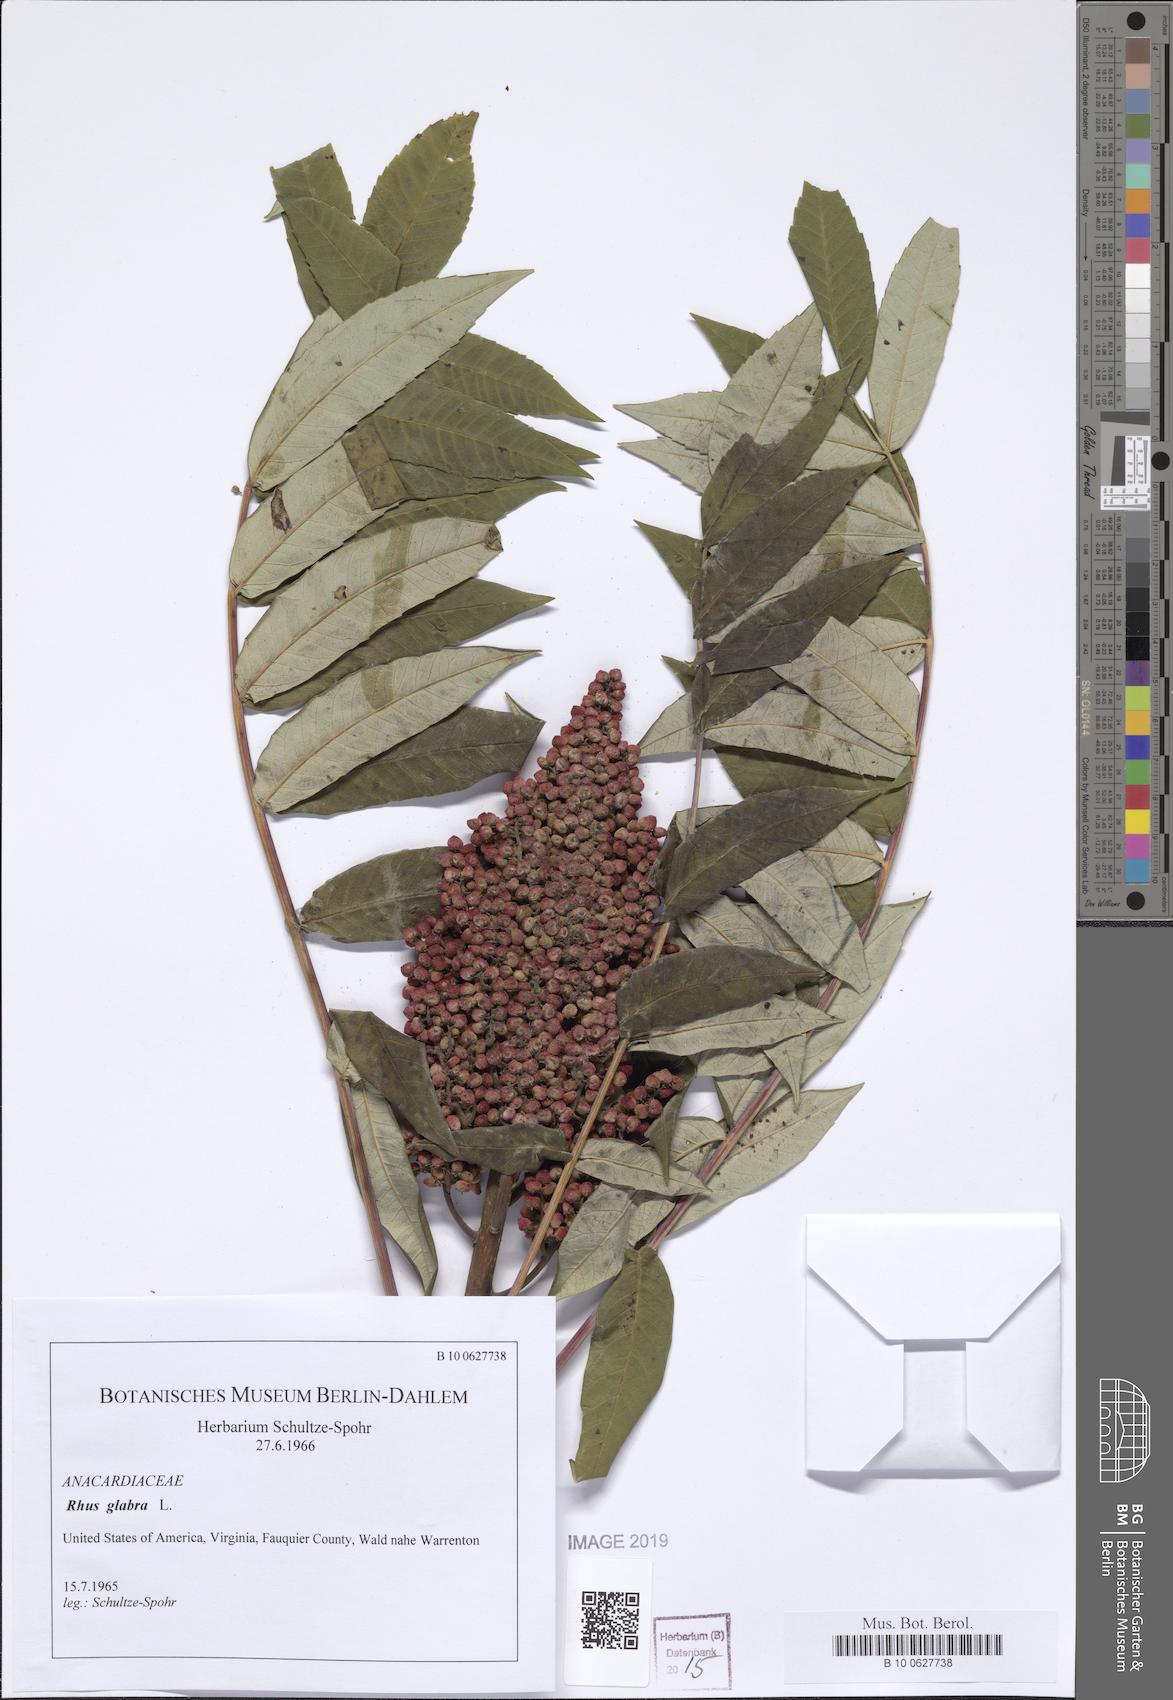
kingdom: Plantae
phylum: Tracheophyta
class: Magnoliopsida
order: Sapindales
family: Anacardiaceae
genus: Rhus
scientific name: Rhus glabra
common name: Scarlet sumac
